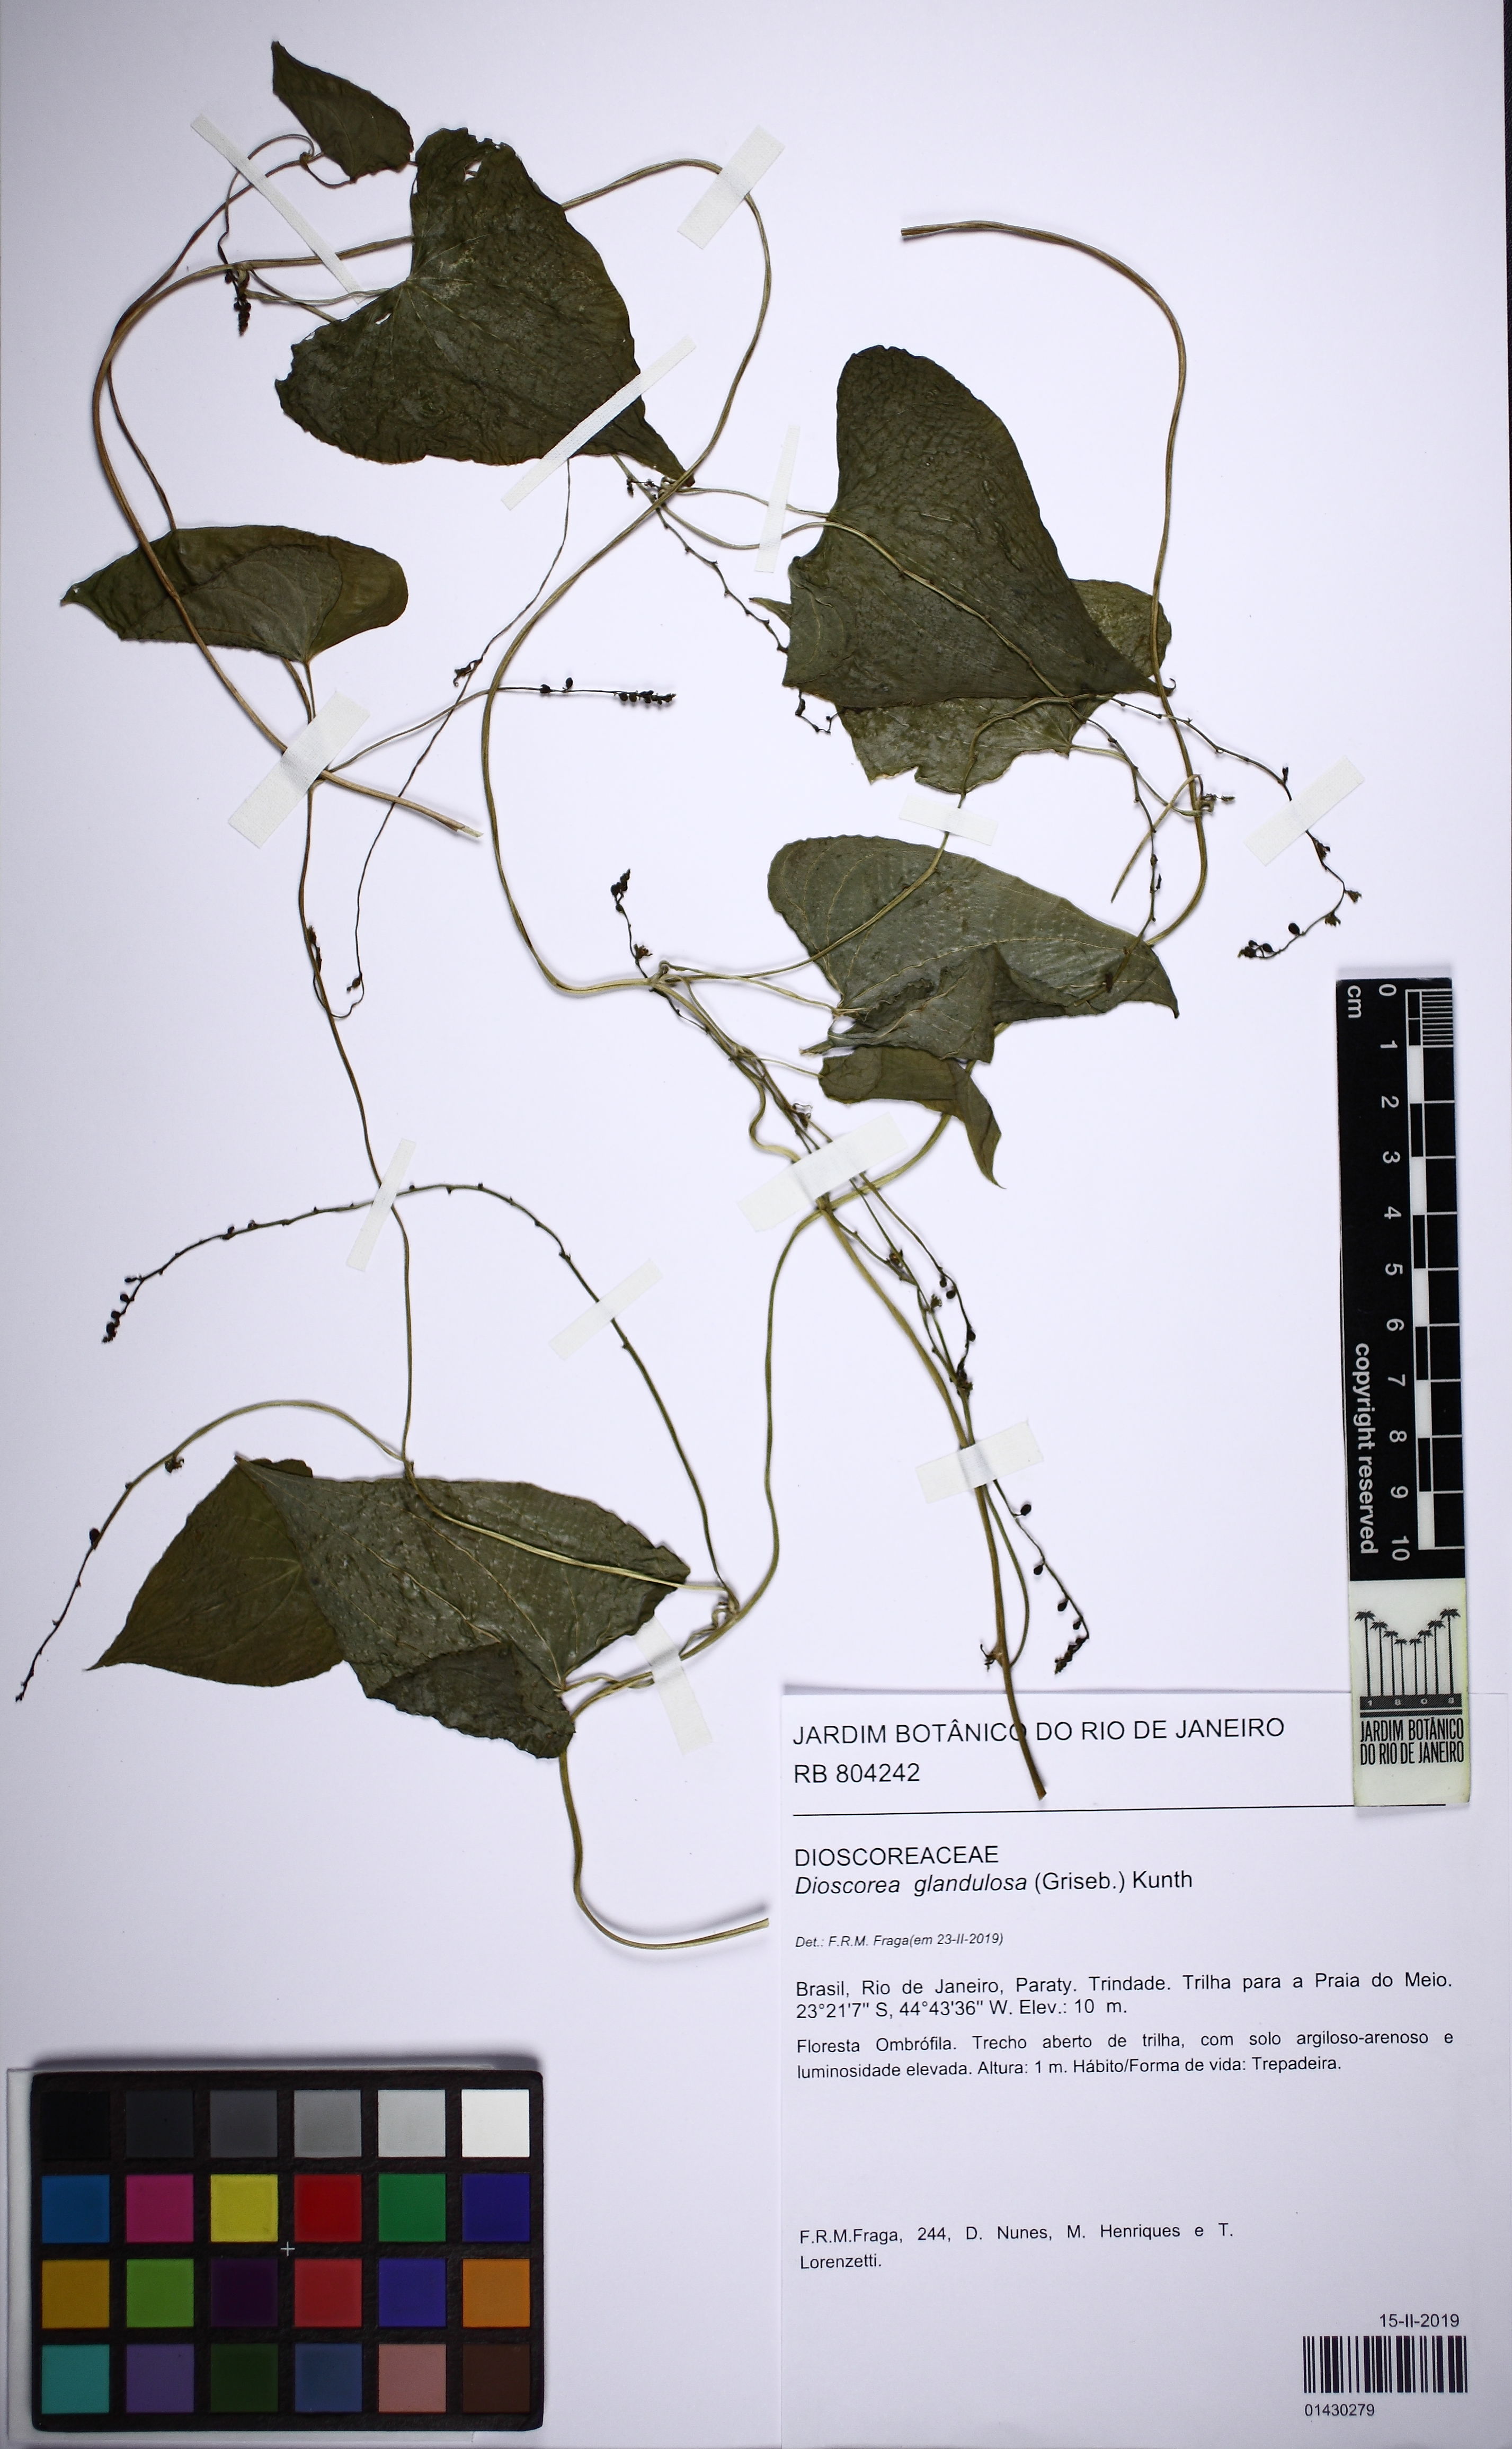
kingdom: Plantae
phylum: Tracheophyta
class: Liliopsida
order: Dioscoreales
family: Dioscoreaceae
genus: Dioscorea
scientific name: Dioscorea glandulosa
